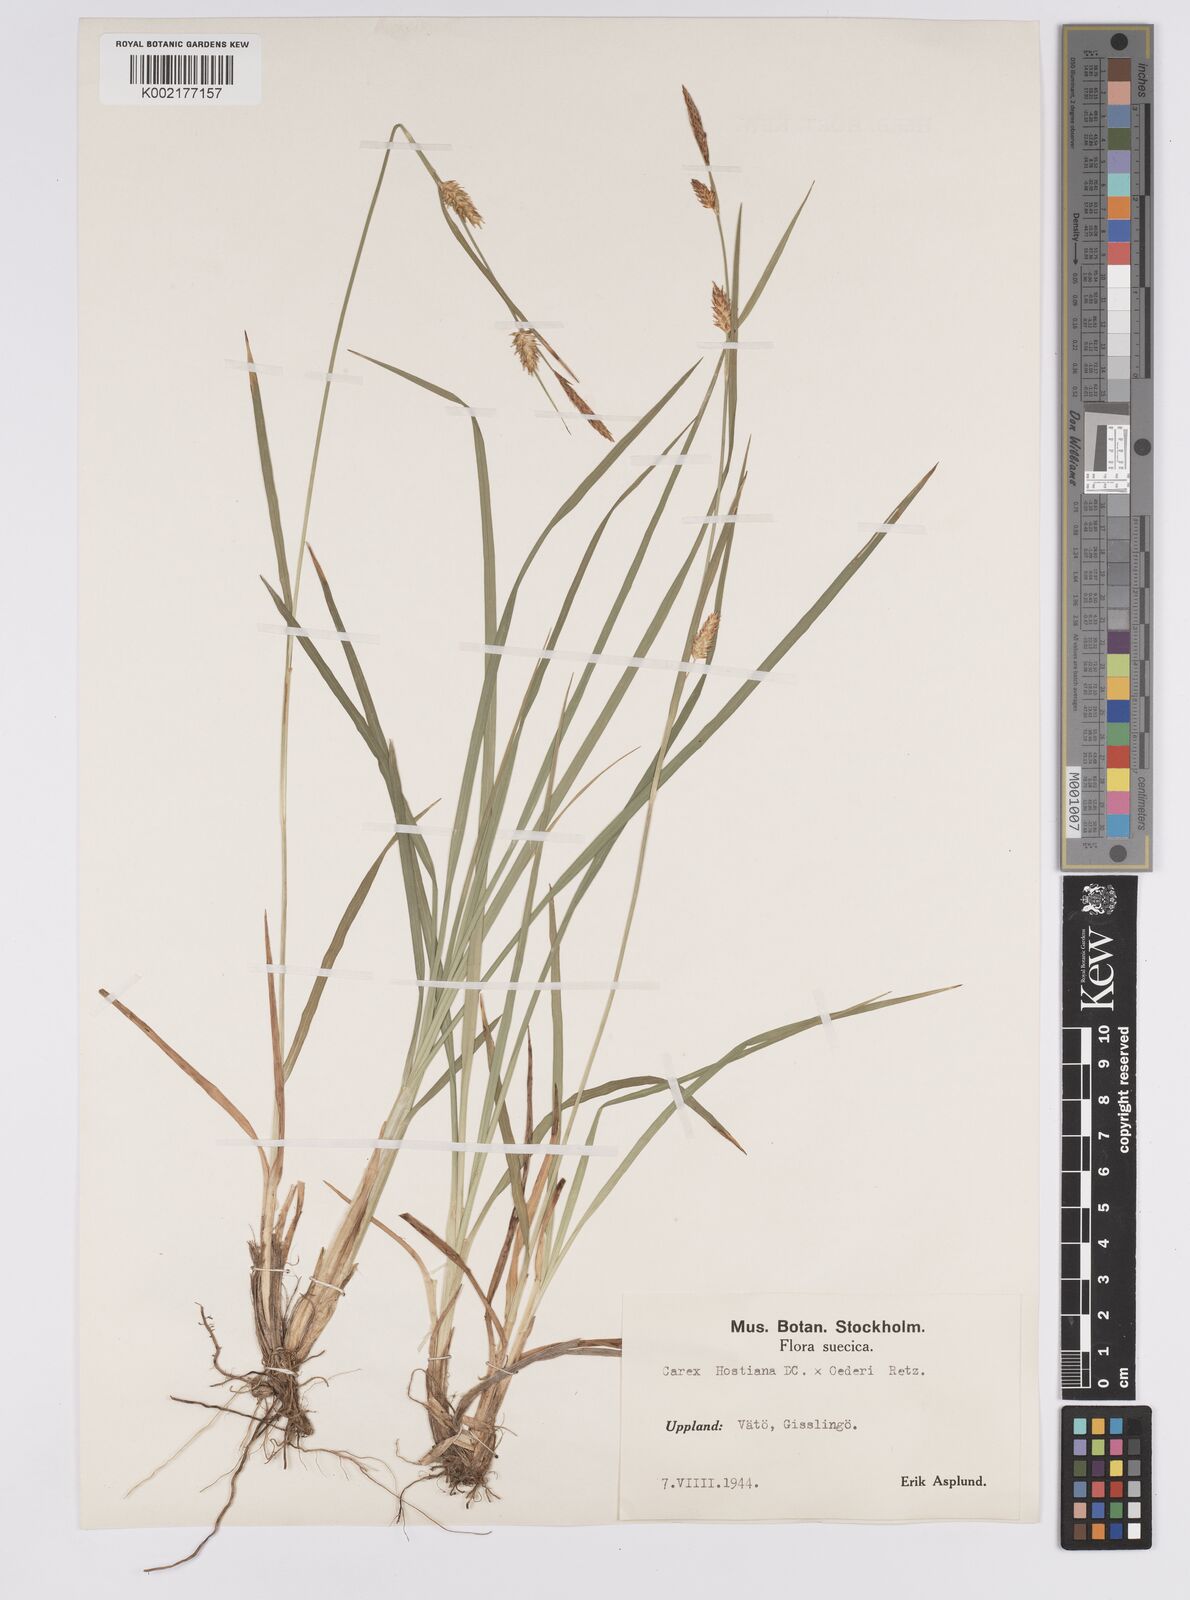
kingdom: Plantae
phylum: Tracheophyta
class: Liliopsida
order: Poales
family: Cyperaceae
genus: Carex
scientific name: Carex hostiana
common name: Tawny sedge
